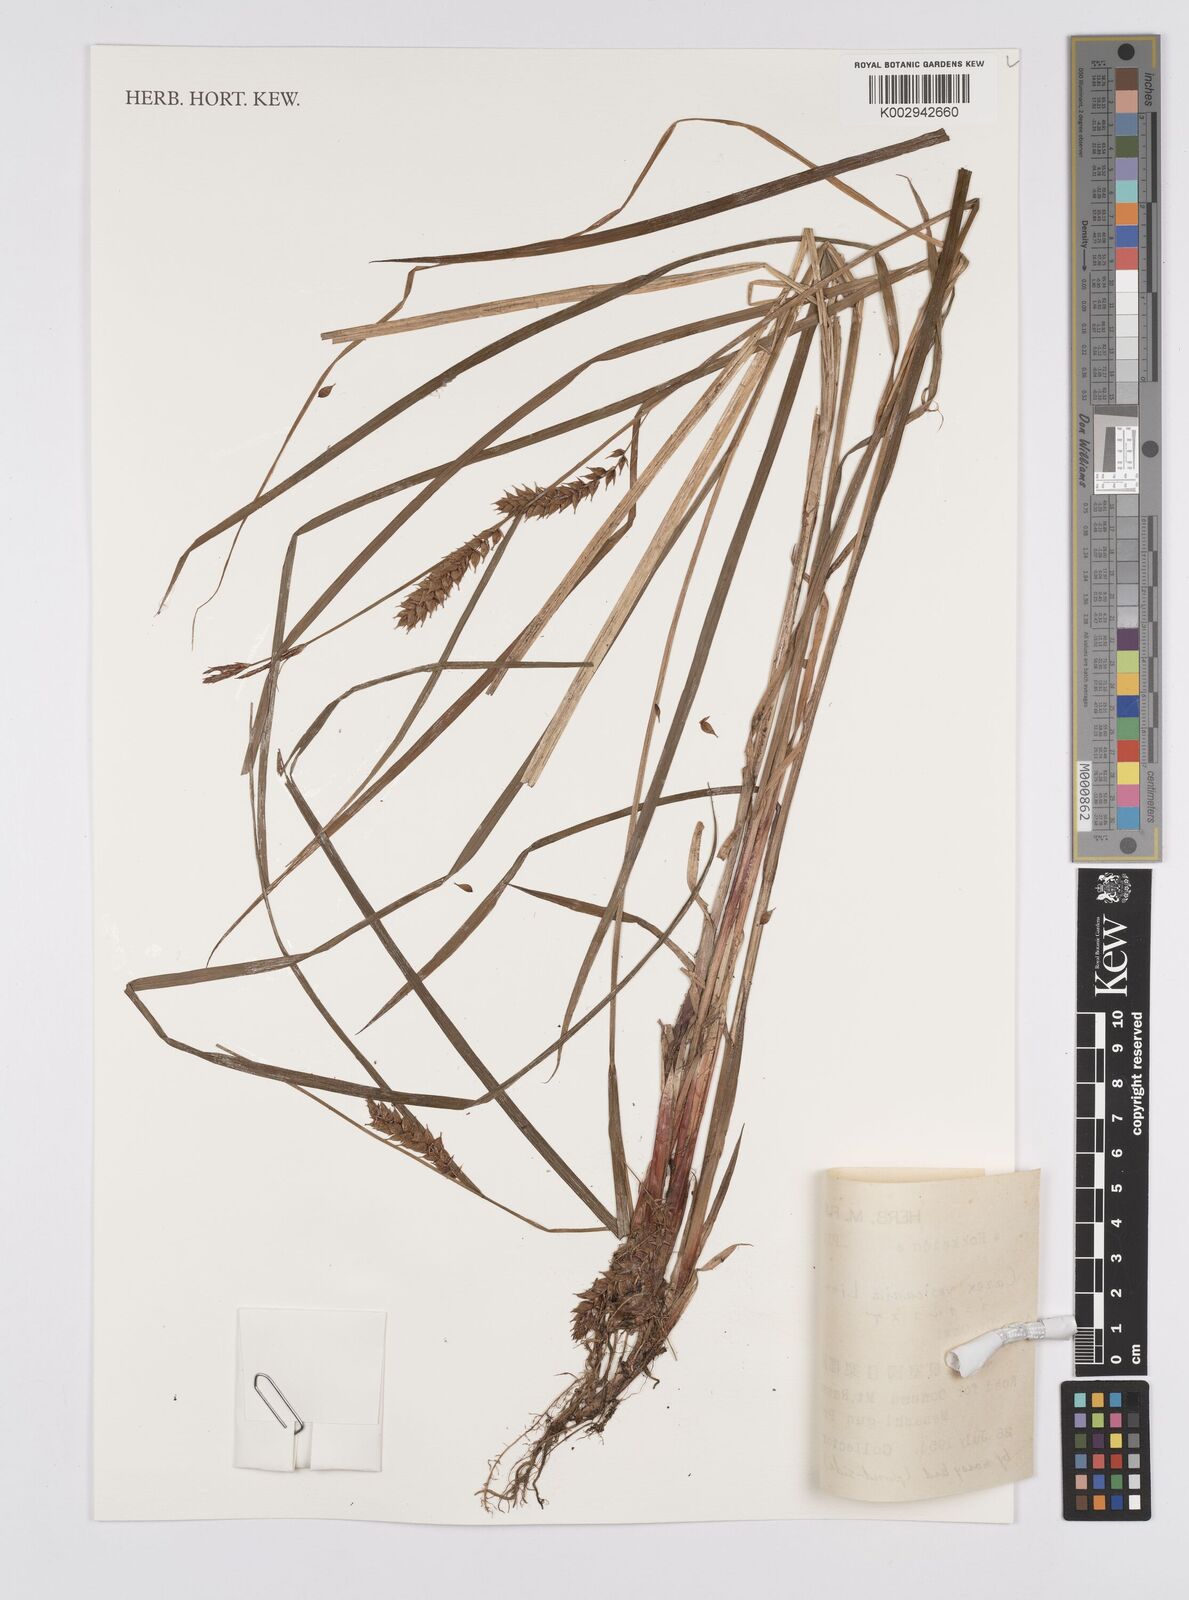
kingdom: Plantae
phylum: Tracheophyta
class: Liliopsida
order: Poales
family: Cyperaceae
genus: Carex
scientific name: Carex vesicaria
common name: Bladder-sedge
